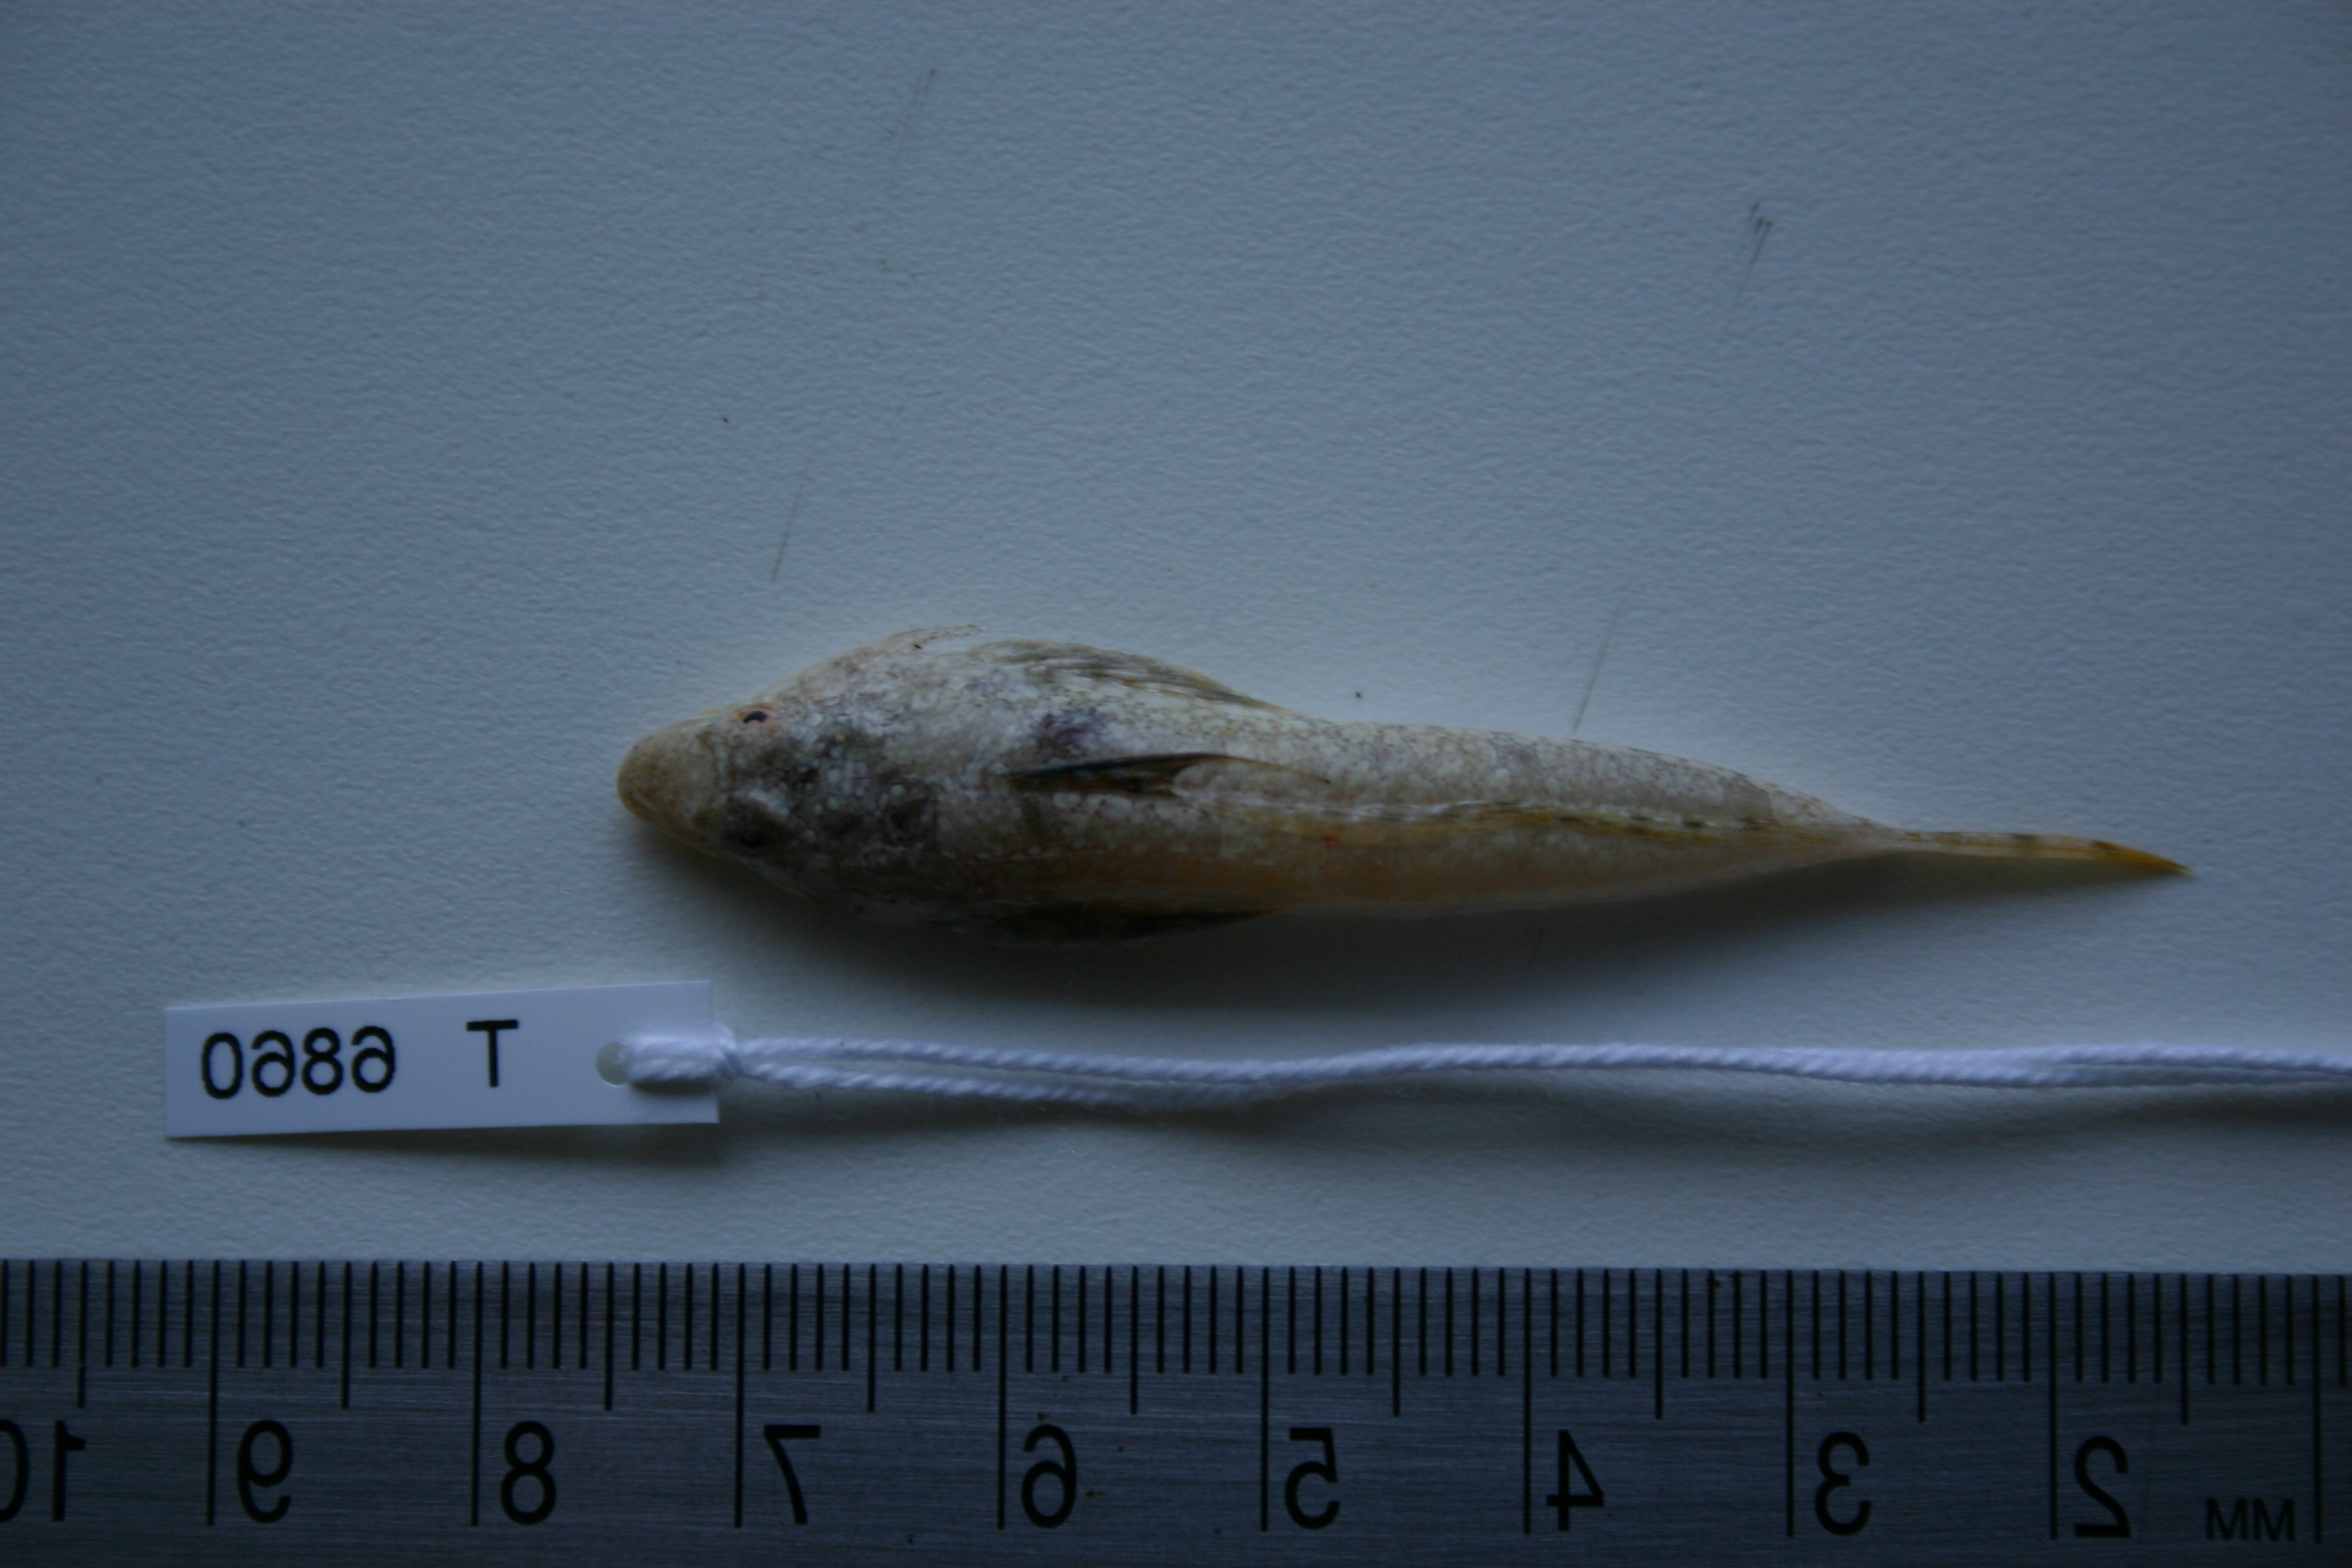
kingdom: Animalia
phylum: Chordata
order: Perciformes
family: Callionymidae
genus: Diplogrammus
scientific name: Diplogrammus
